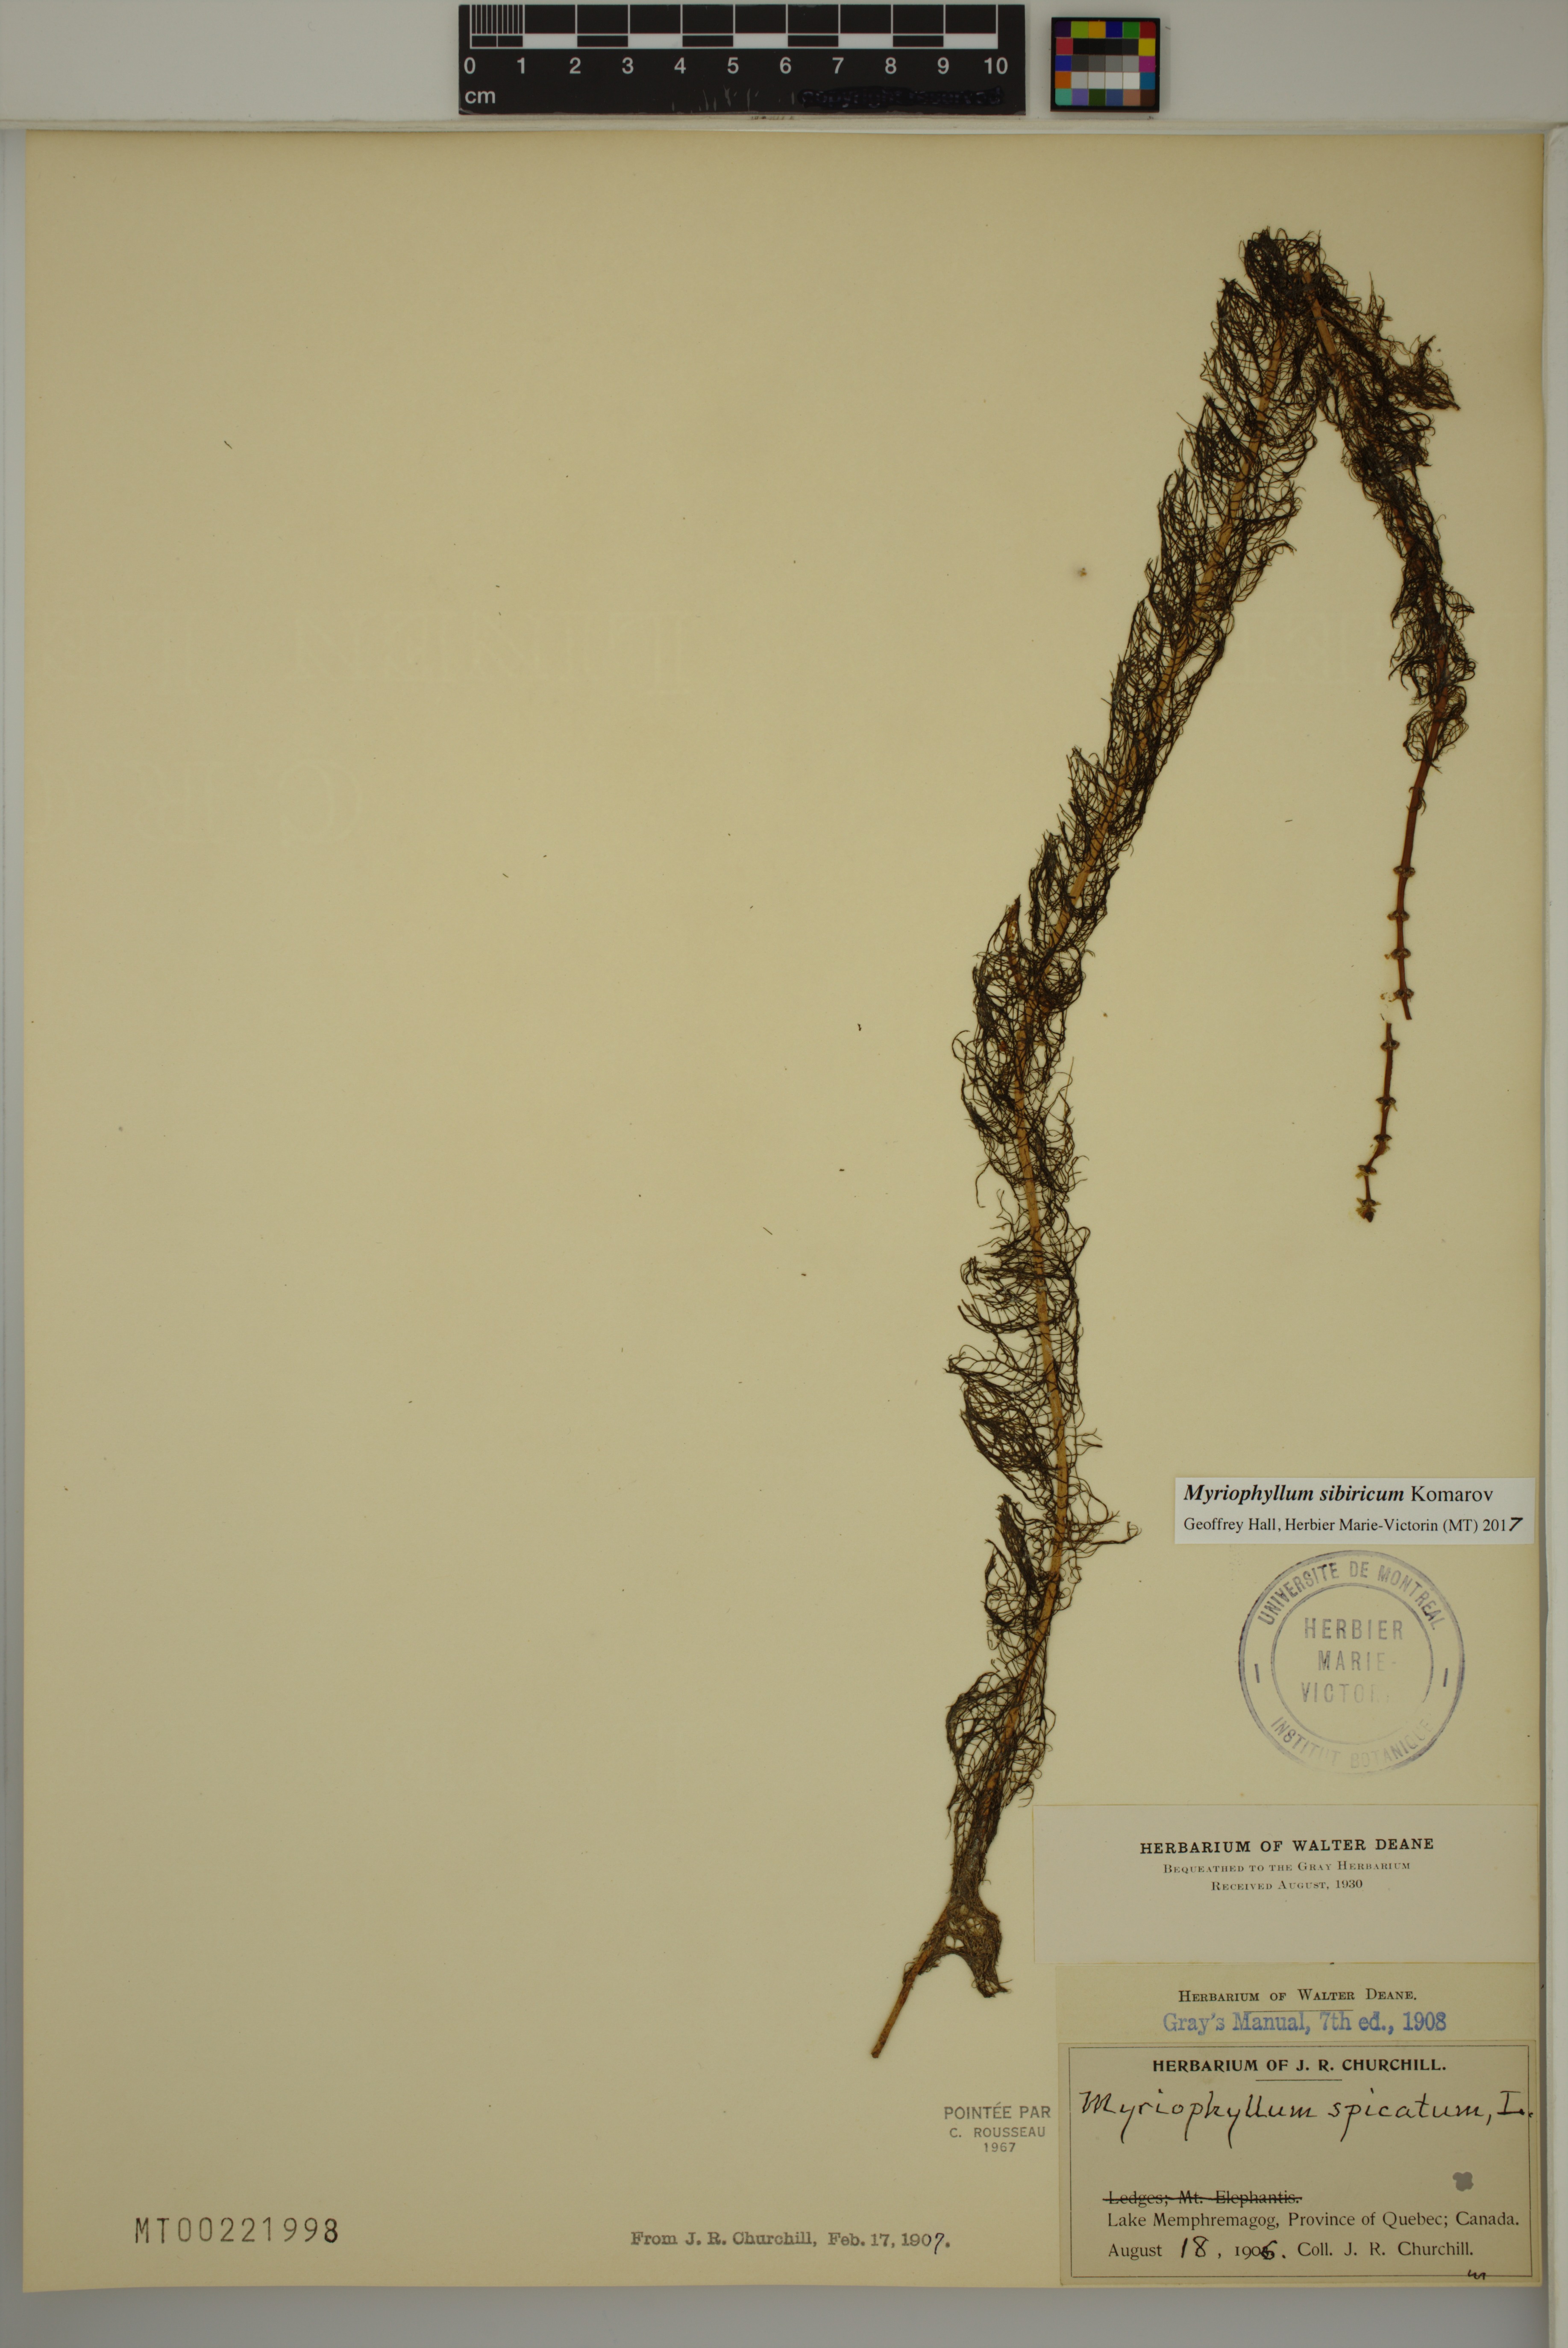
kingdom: Plantae
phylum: Tracheophyta
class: Magnoliopsida
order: Saxifragales
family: Haloragaceae
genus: Myriophyllum
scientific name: Myriophyllum sibiricum
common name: Siberian water-milfoil
